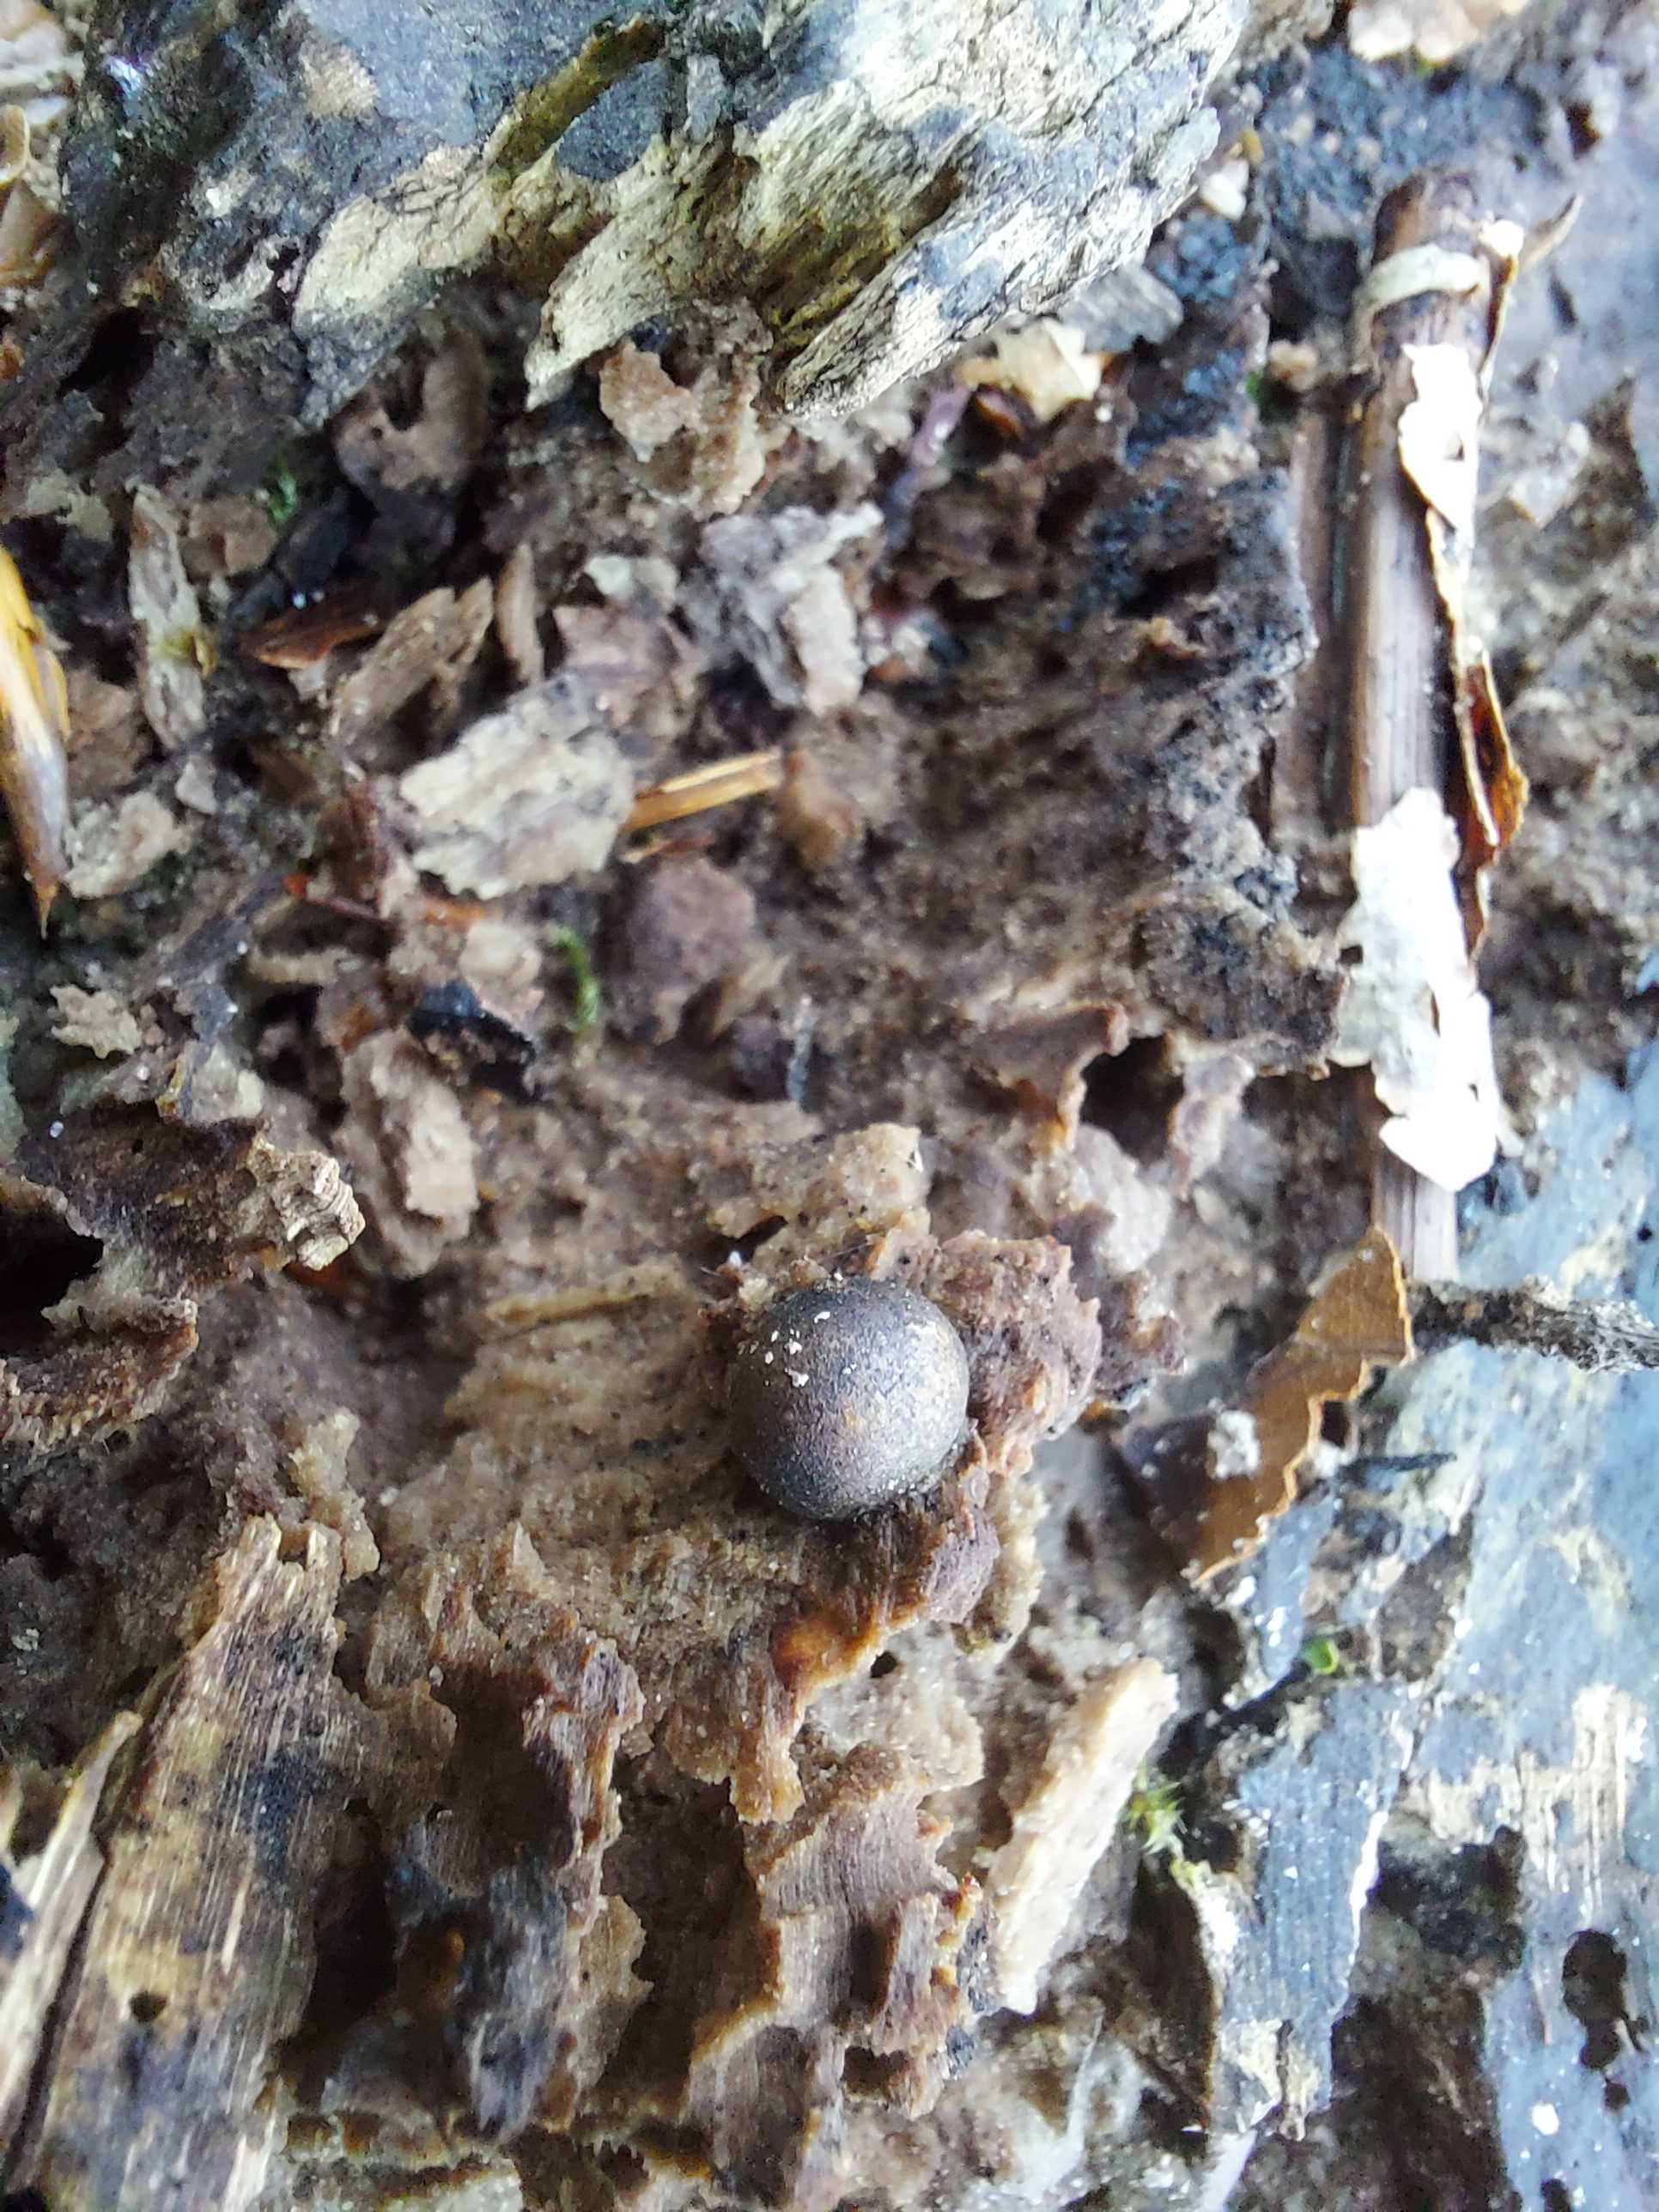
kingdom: Protozoa
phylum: Mycetozoa
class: Myxomycetes
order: Cribrariales
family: Tubiferaceae
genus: Lycogala
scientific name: Lycogala epidendrum
